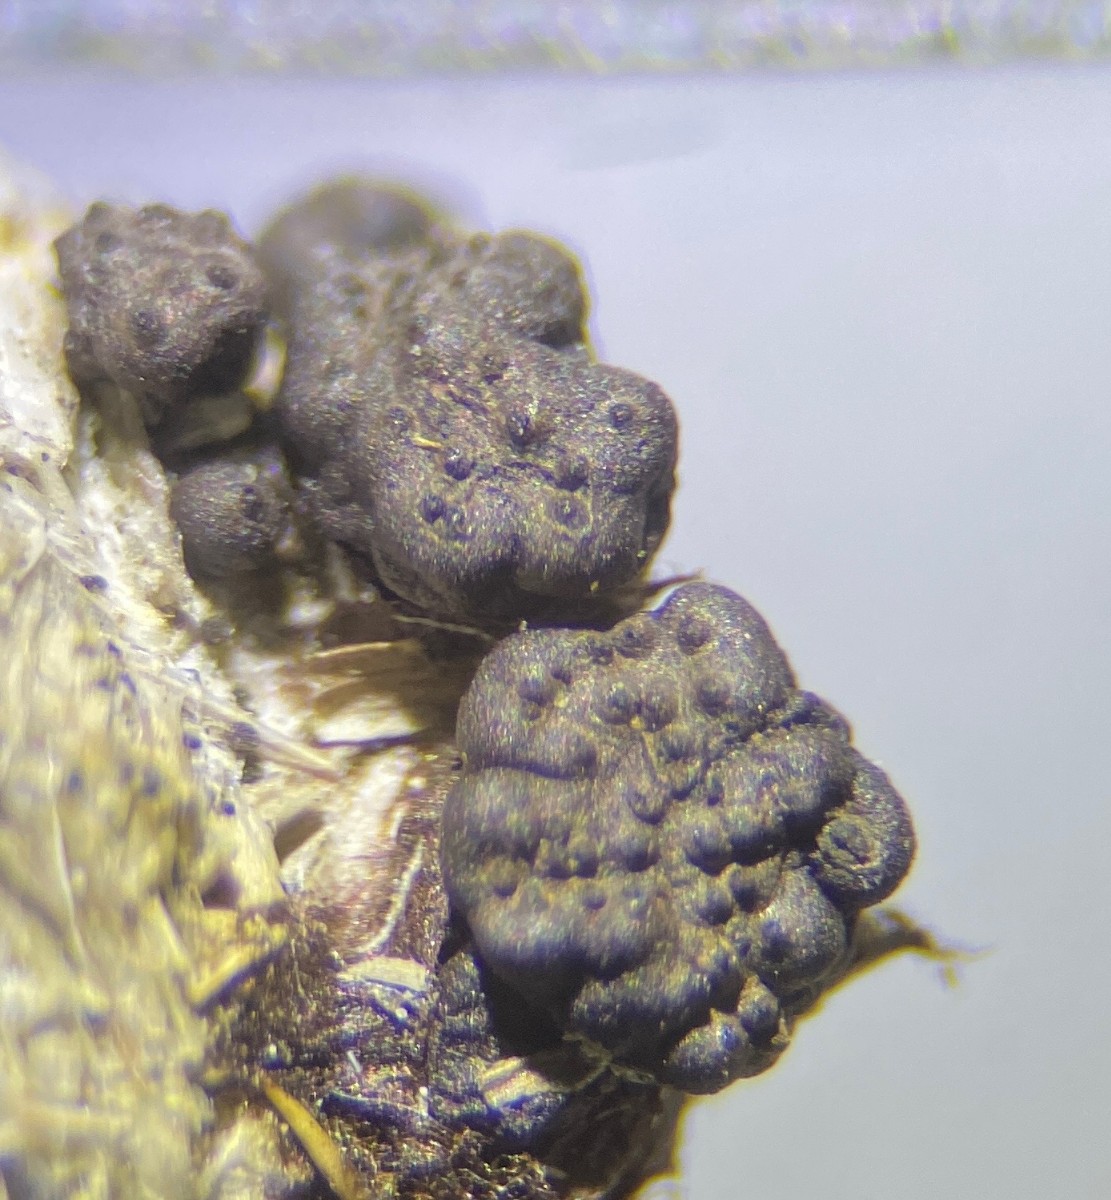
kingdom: Fungi
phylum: Ascomycota
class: Sordariomycetes
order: Xylariales
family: Xylariaceae
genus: Podosordaria
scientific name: Podosordaria tulasnei
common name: gødnings-stødsvamp
